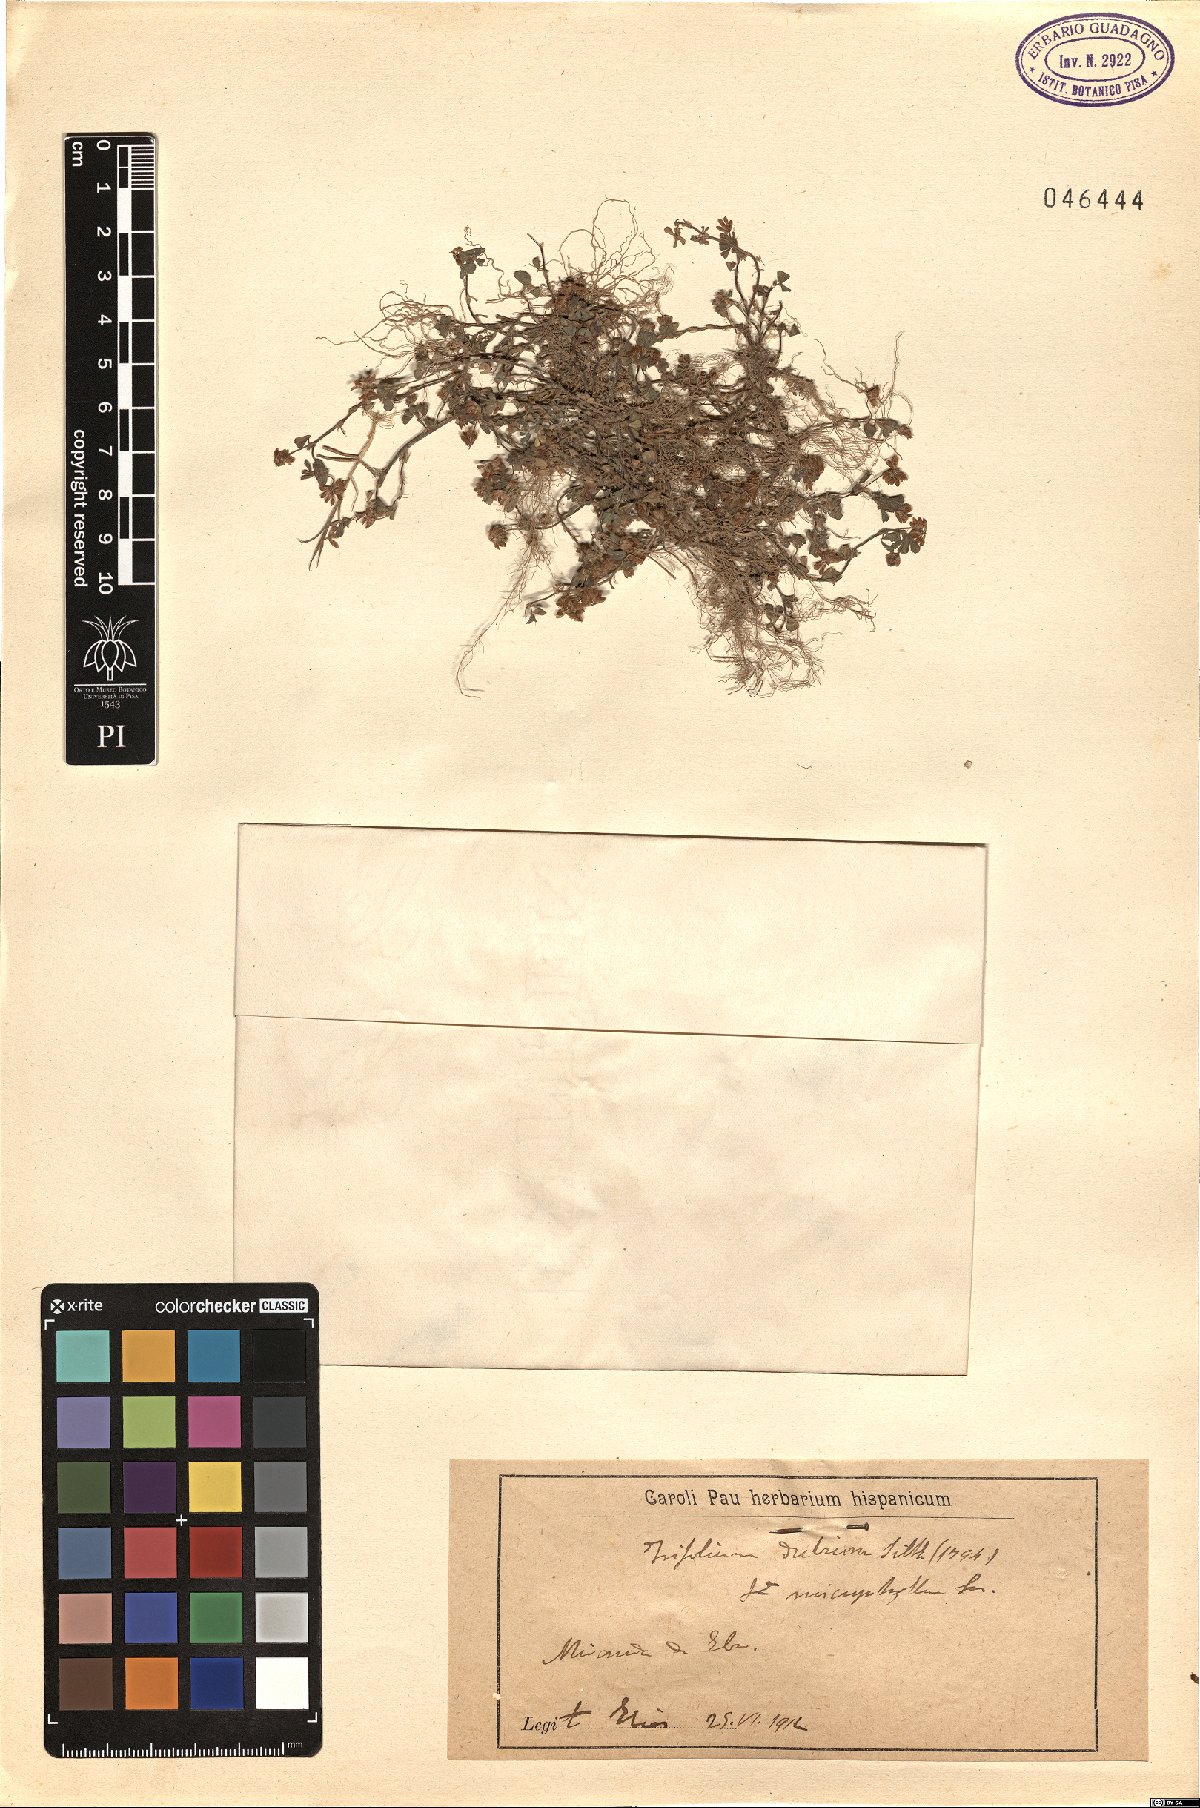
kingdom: Plantae
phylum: Tracheophyta
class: Magnoliopsida
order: Fabales
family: Fabaceae
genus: Trifolium
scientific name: Trifolium dubium
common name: Suckling clover
